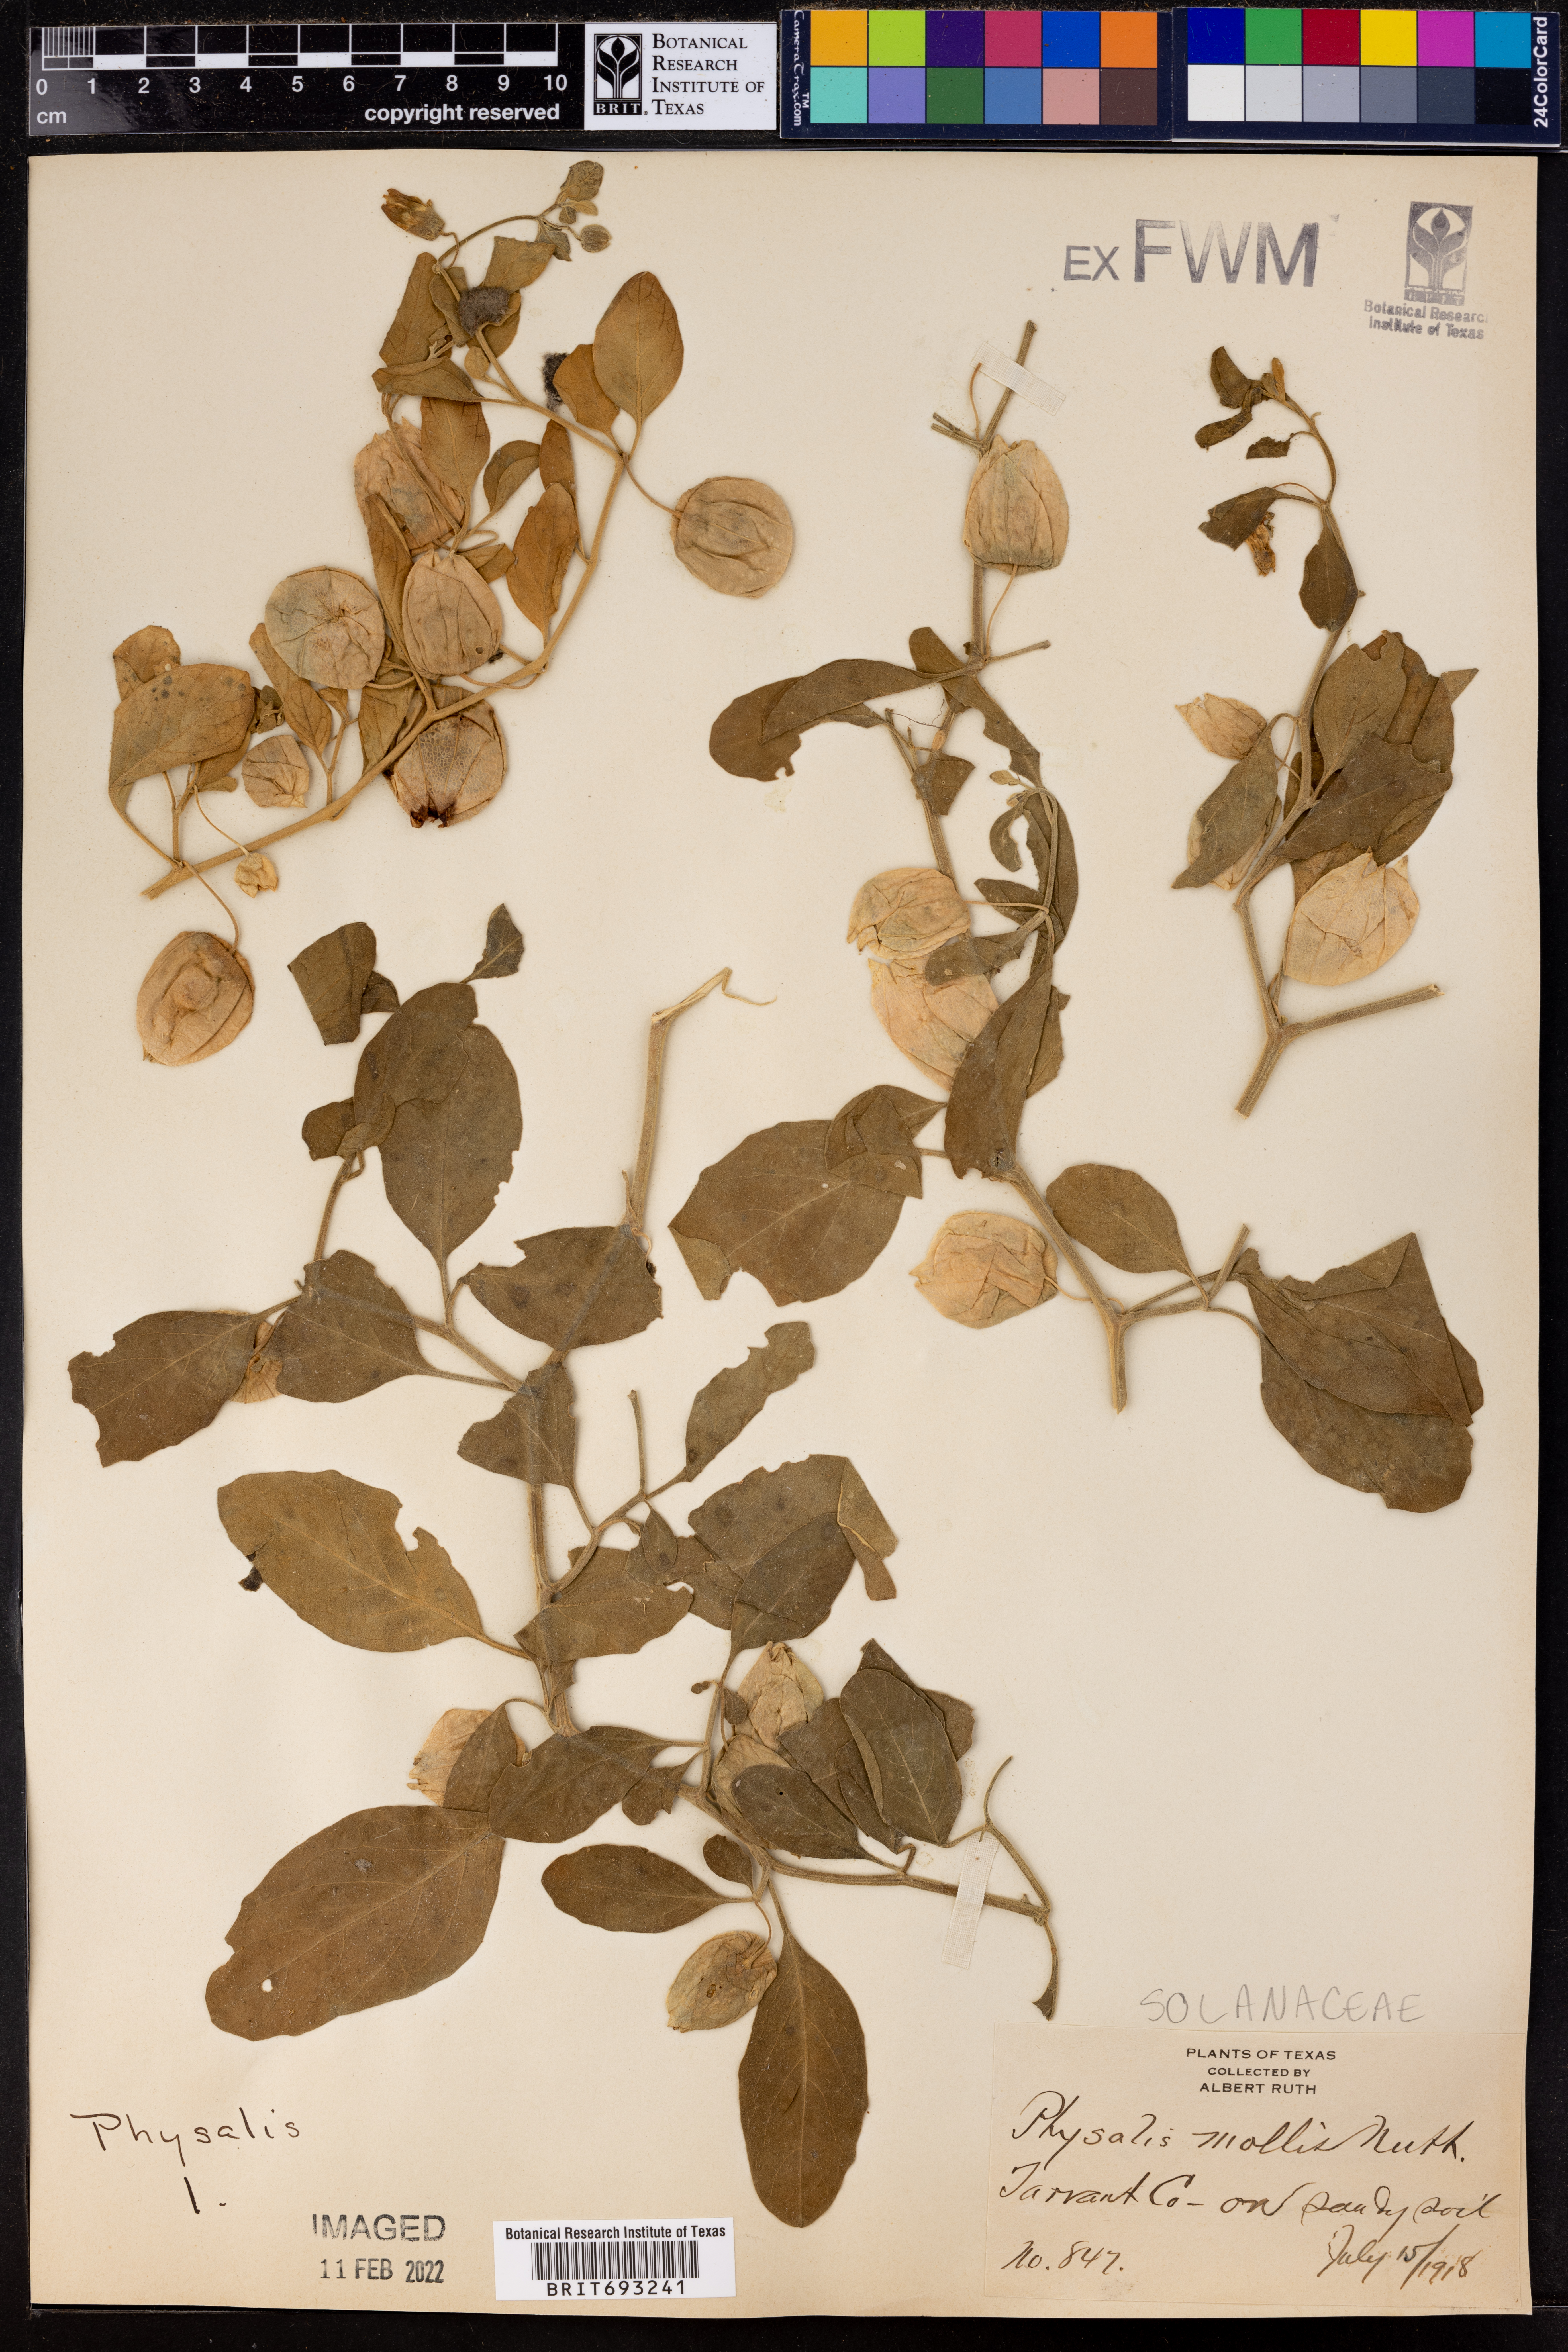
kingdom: Plantae
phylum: Tracheophyta
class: Magnoliopsida
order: Solanales
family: Solanaceae
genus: Physalis
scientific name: Physalis mollis
